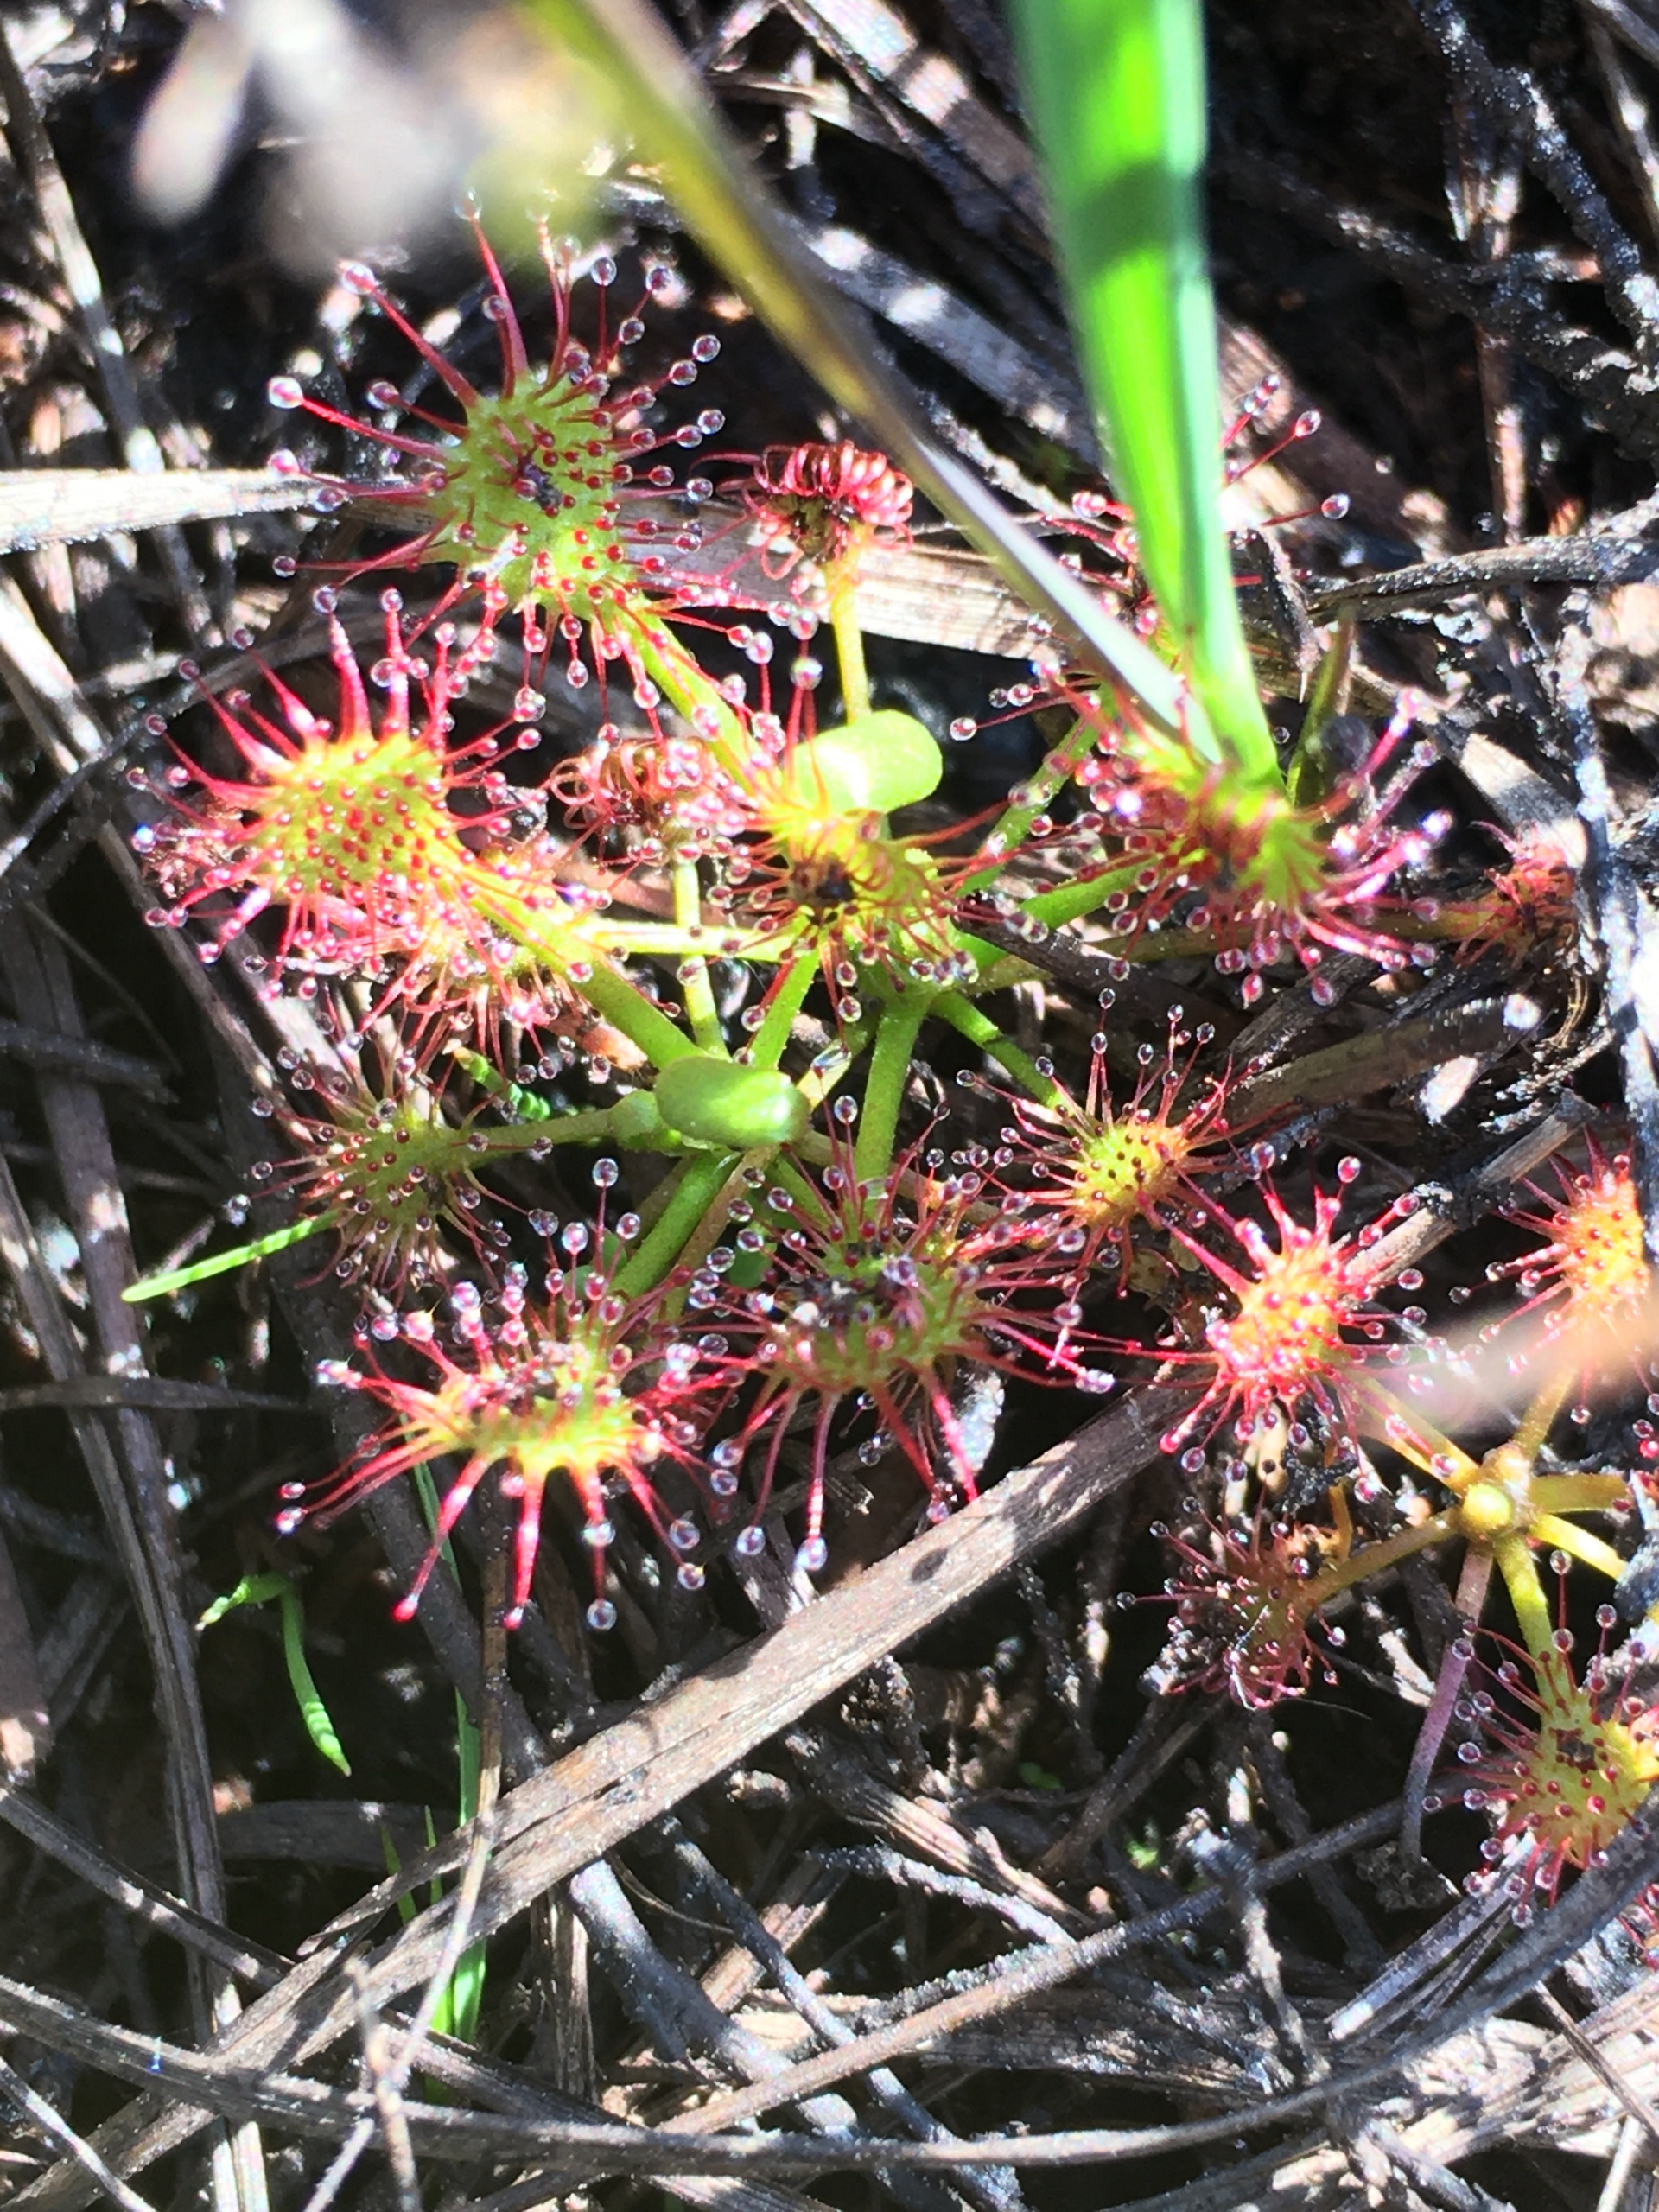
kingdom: Plantae
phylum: Tracheophyta
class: Magnoliopsida
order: Caryophyllales
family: Droseraceae
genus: Drosera
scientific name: Drosera rotundifolia
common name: Rundbladet soldug
